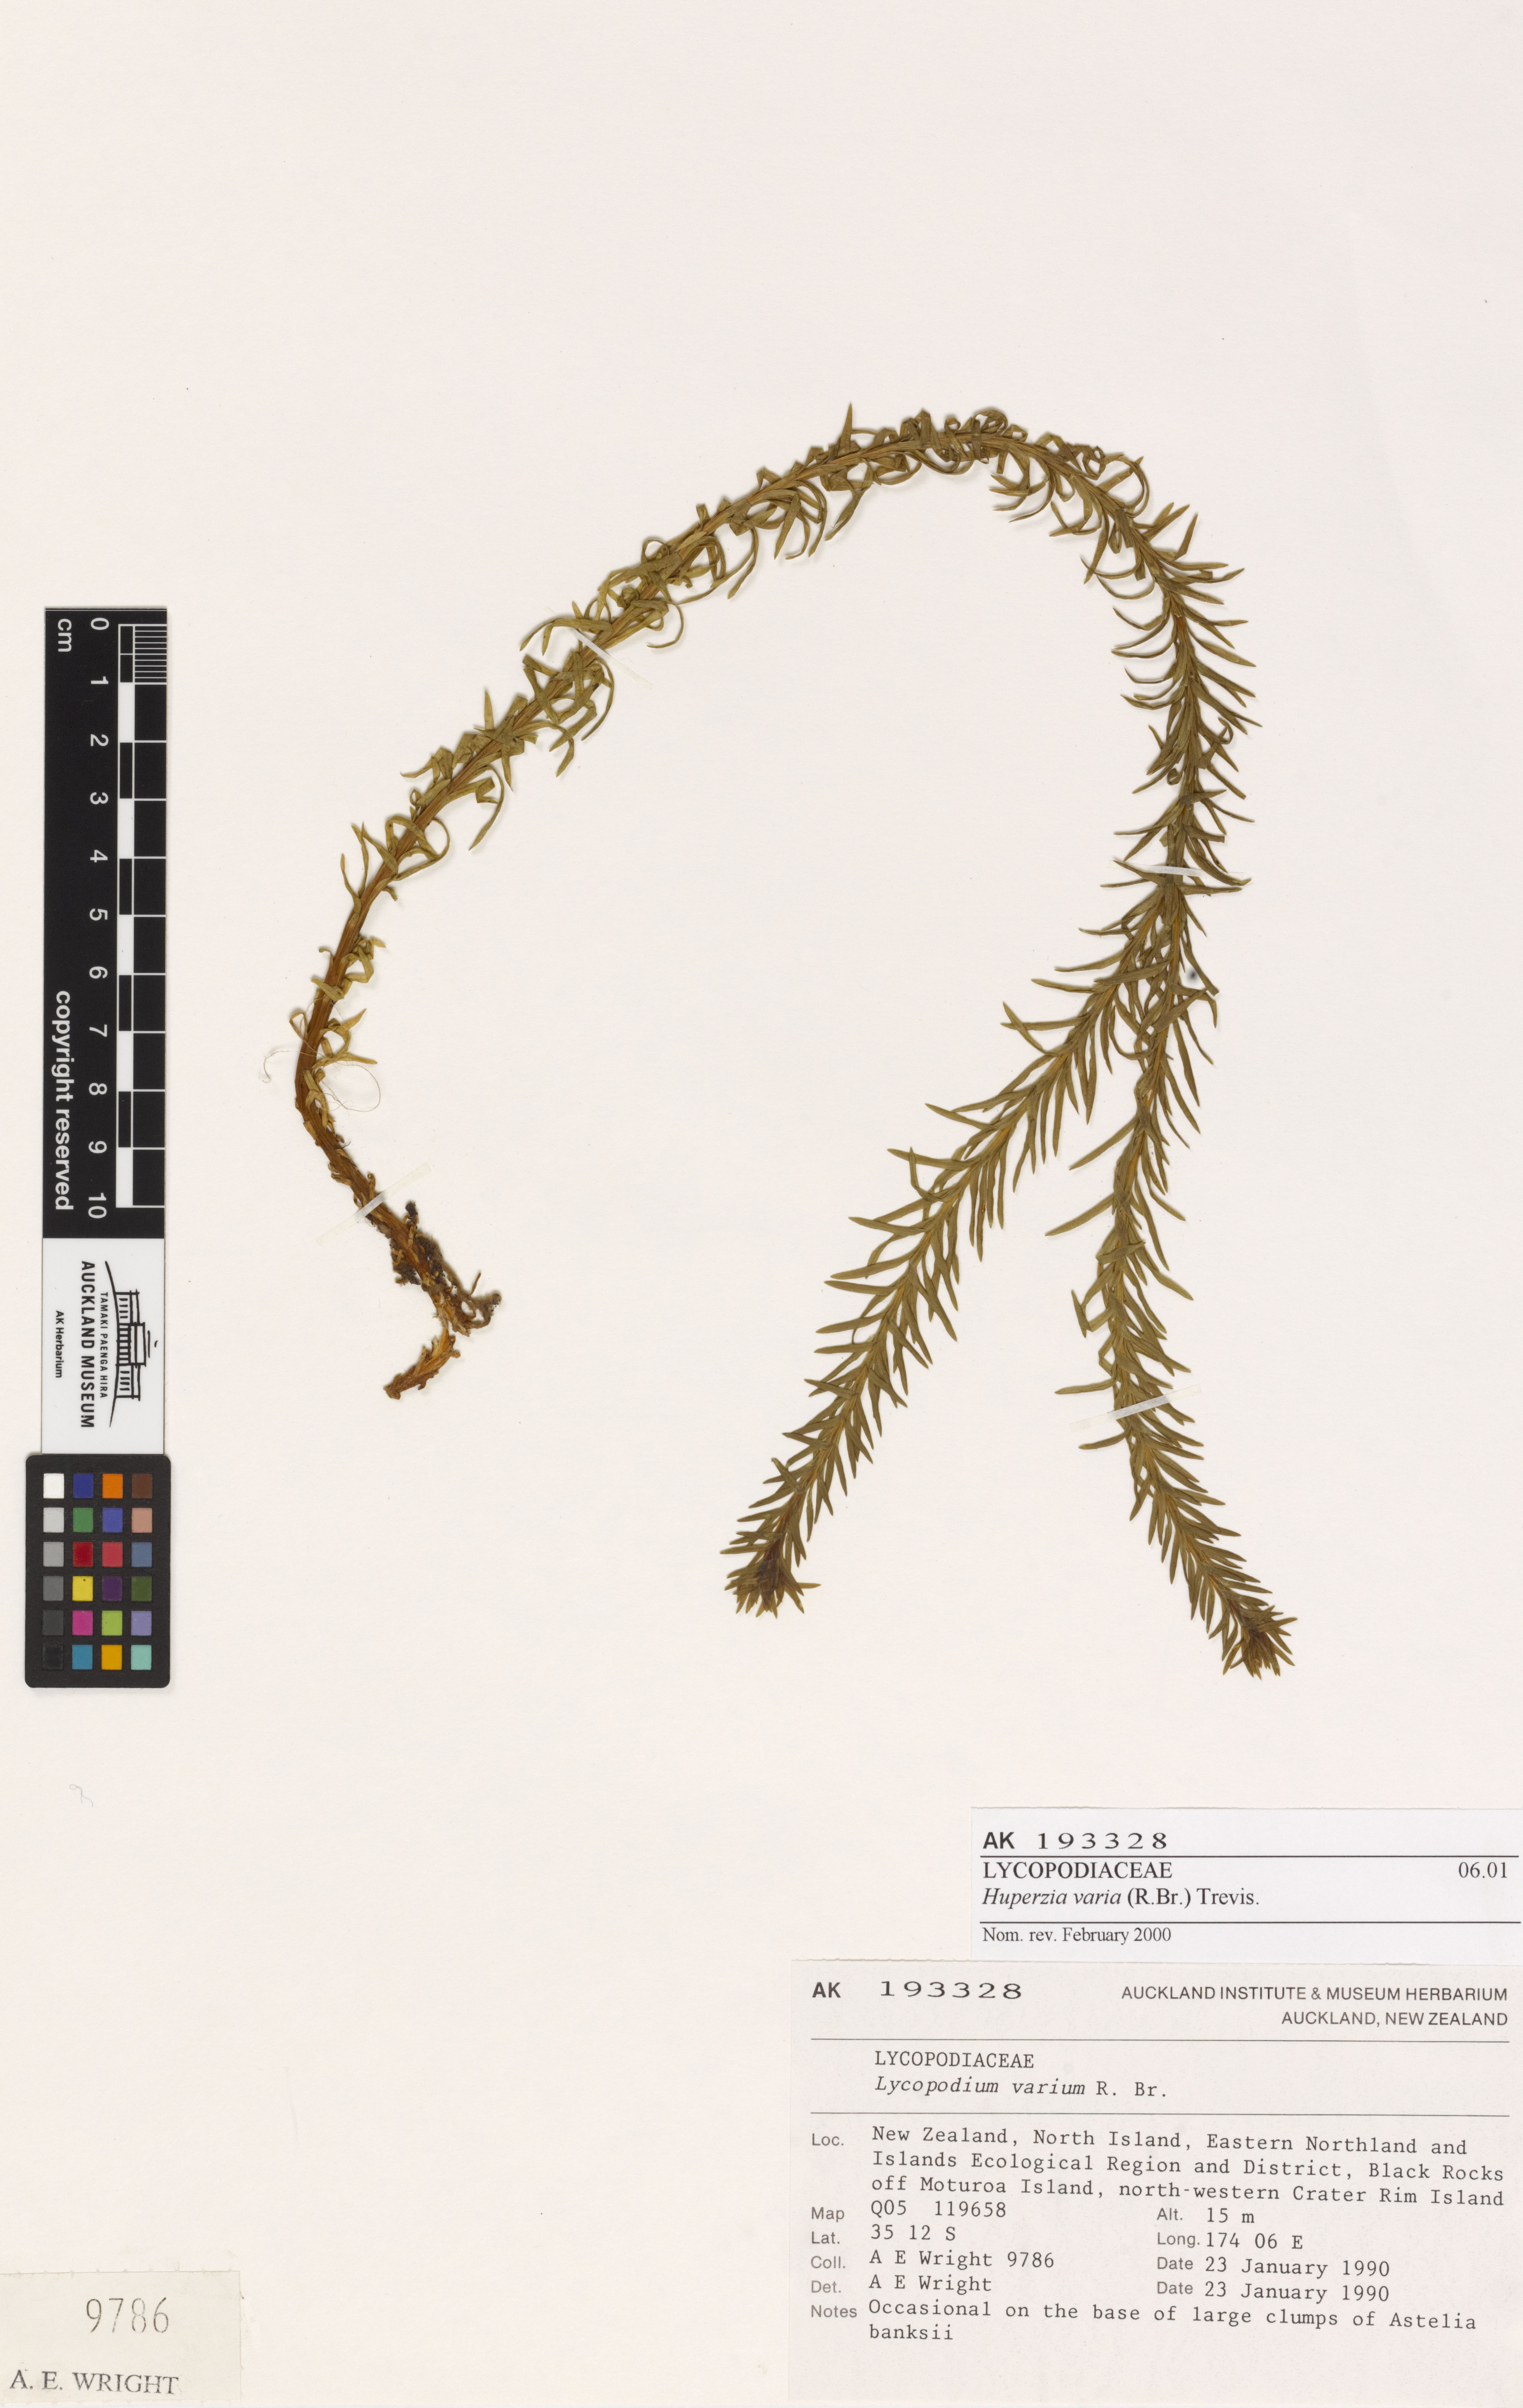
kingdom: Plantae
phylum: Tracheophyta
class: Lycopodiopsida
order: Lycopodiales
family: Lycopodiaceae
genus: Phlegmariurus
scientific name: Phlegmariurus
